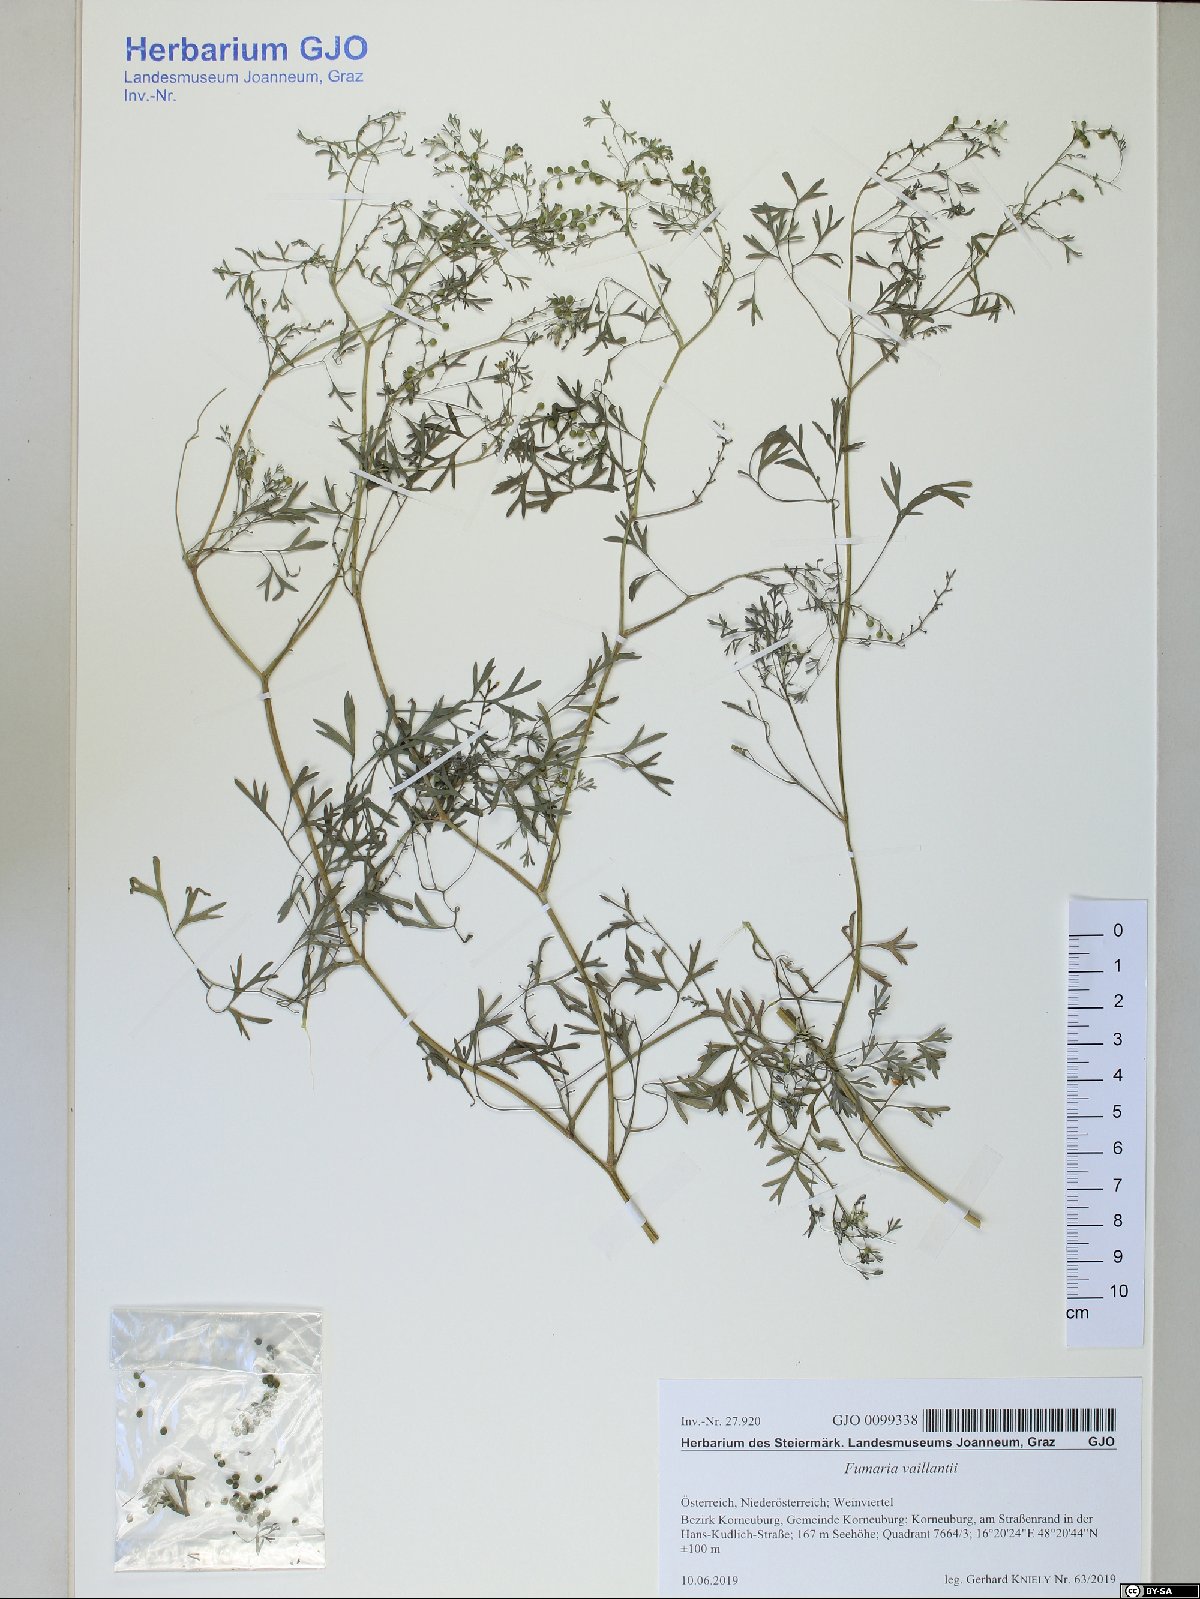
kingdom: Plantae
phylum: Tracheophyta
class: Magnoliopsida
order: Ranunculales
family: Papaveraceae
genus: Fumaria
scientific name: Fumaria vaillantii
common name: Few-flowered fumitory
